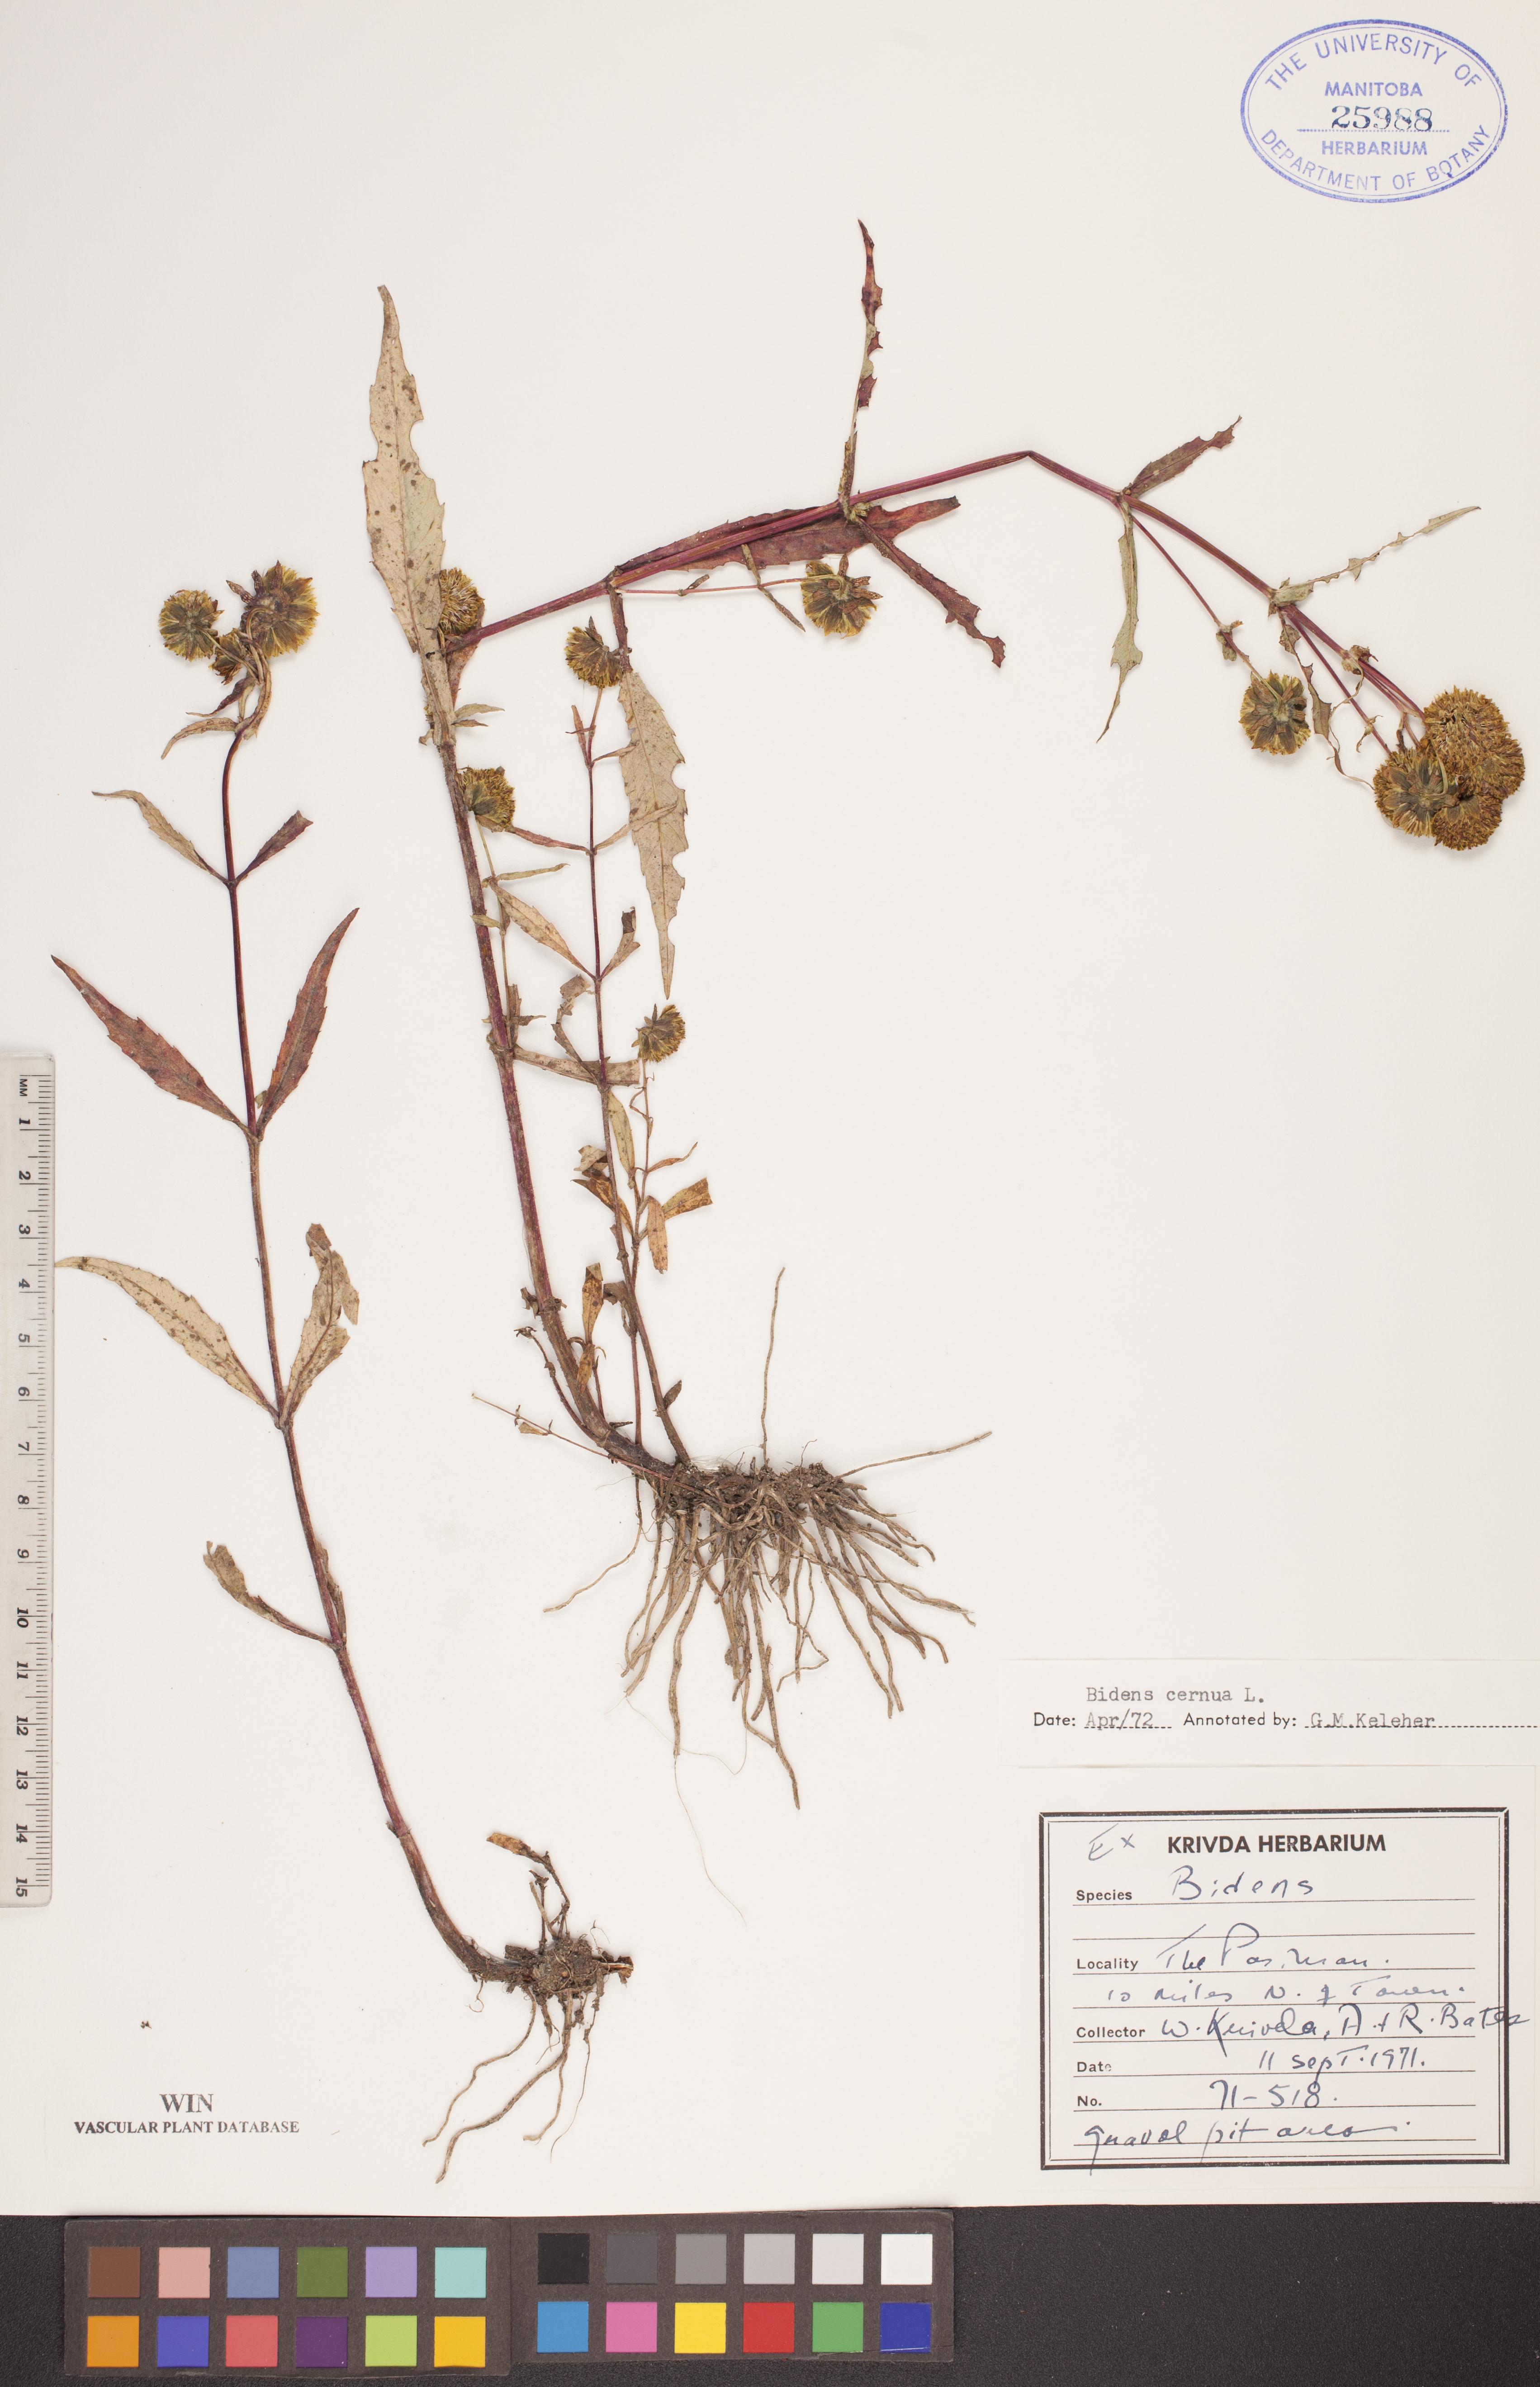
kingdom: Plantae
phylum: Tracheophyta
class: Magnoliopsida
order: Asterales
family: Asteraceae
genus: Bidens
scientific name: Bidens cernua
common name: Nodding bur-marigold
